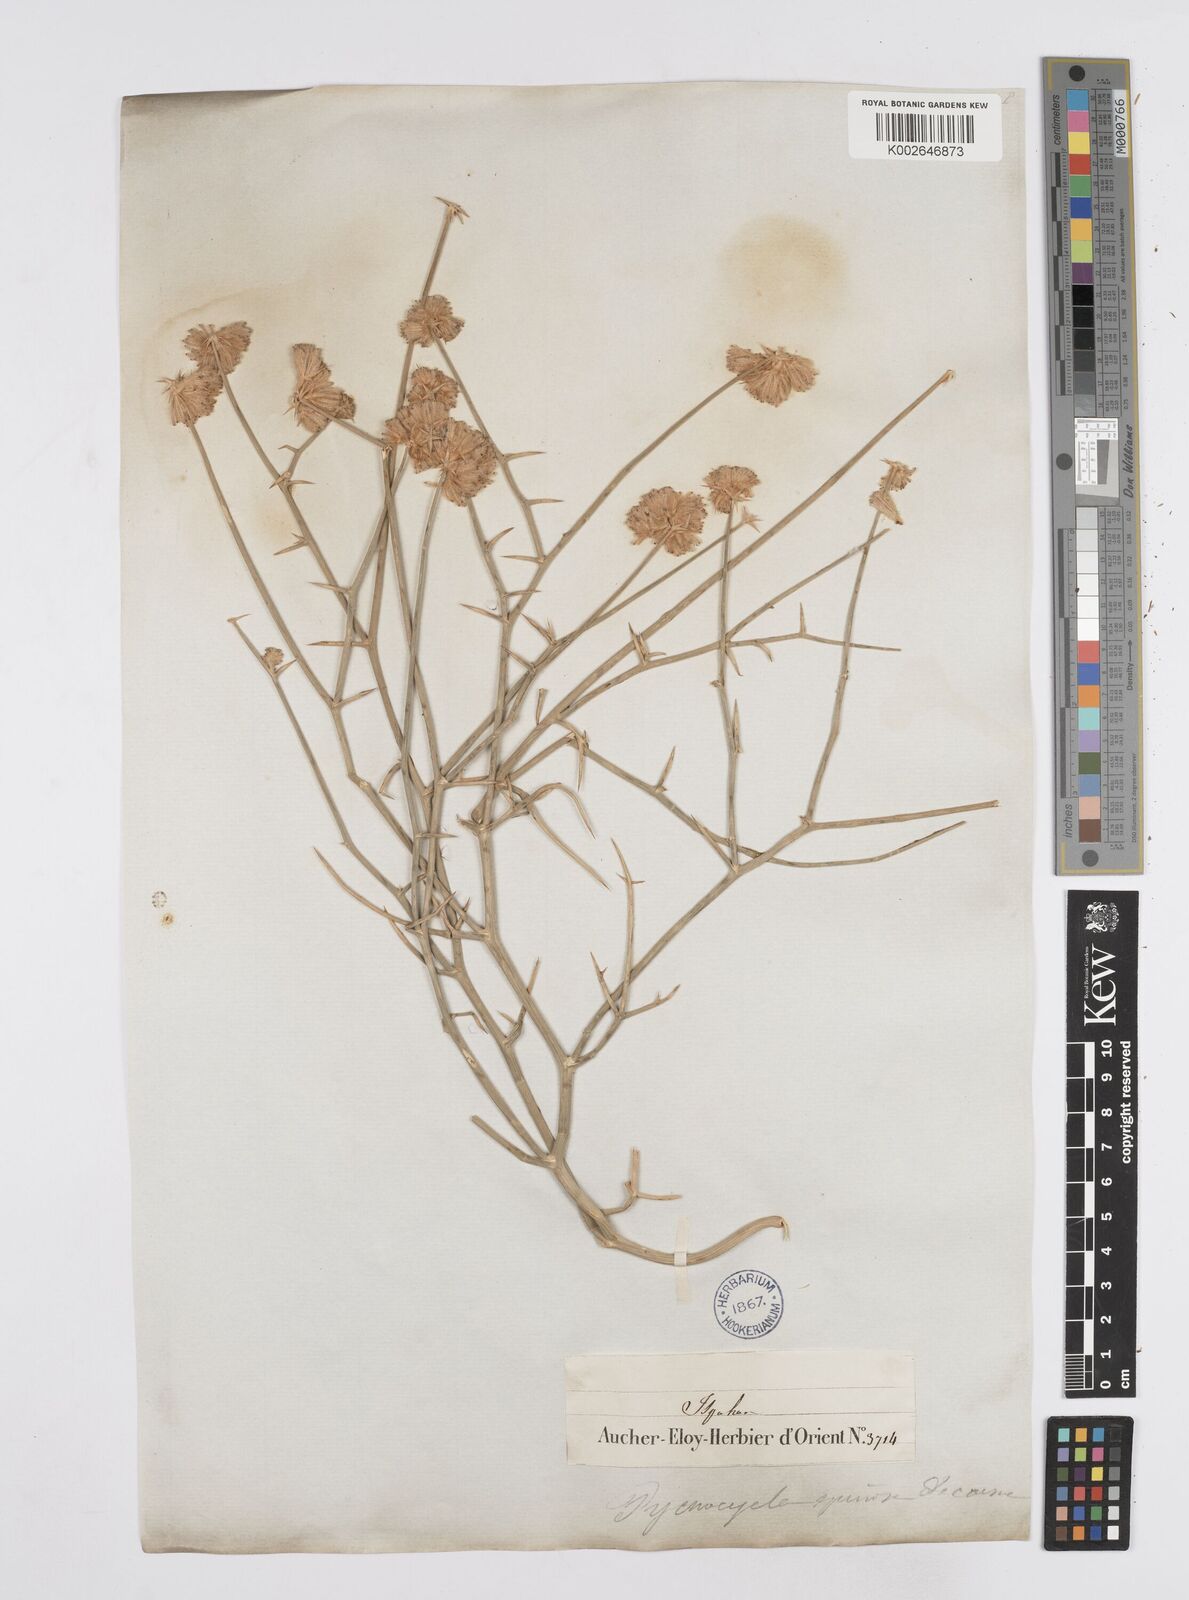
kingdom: Plantae
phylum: Tracheophyta
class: Magnoliopsida
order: Apiales
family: Apiaceae
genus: Pycnocycla
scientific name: Pycnocycla spinosa
